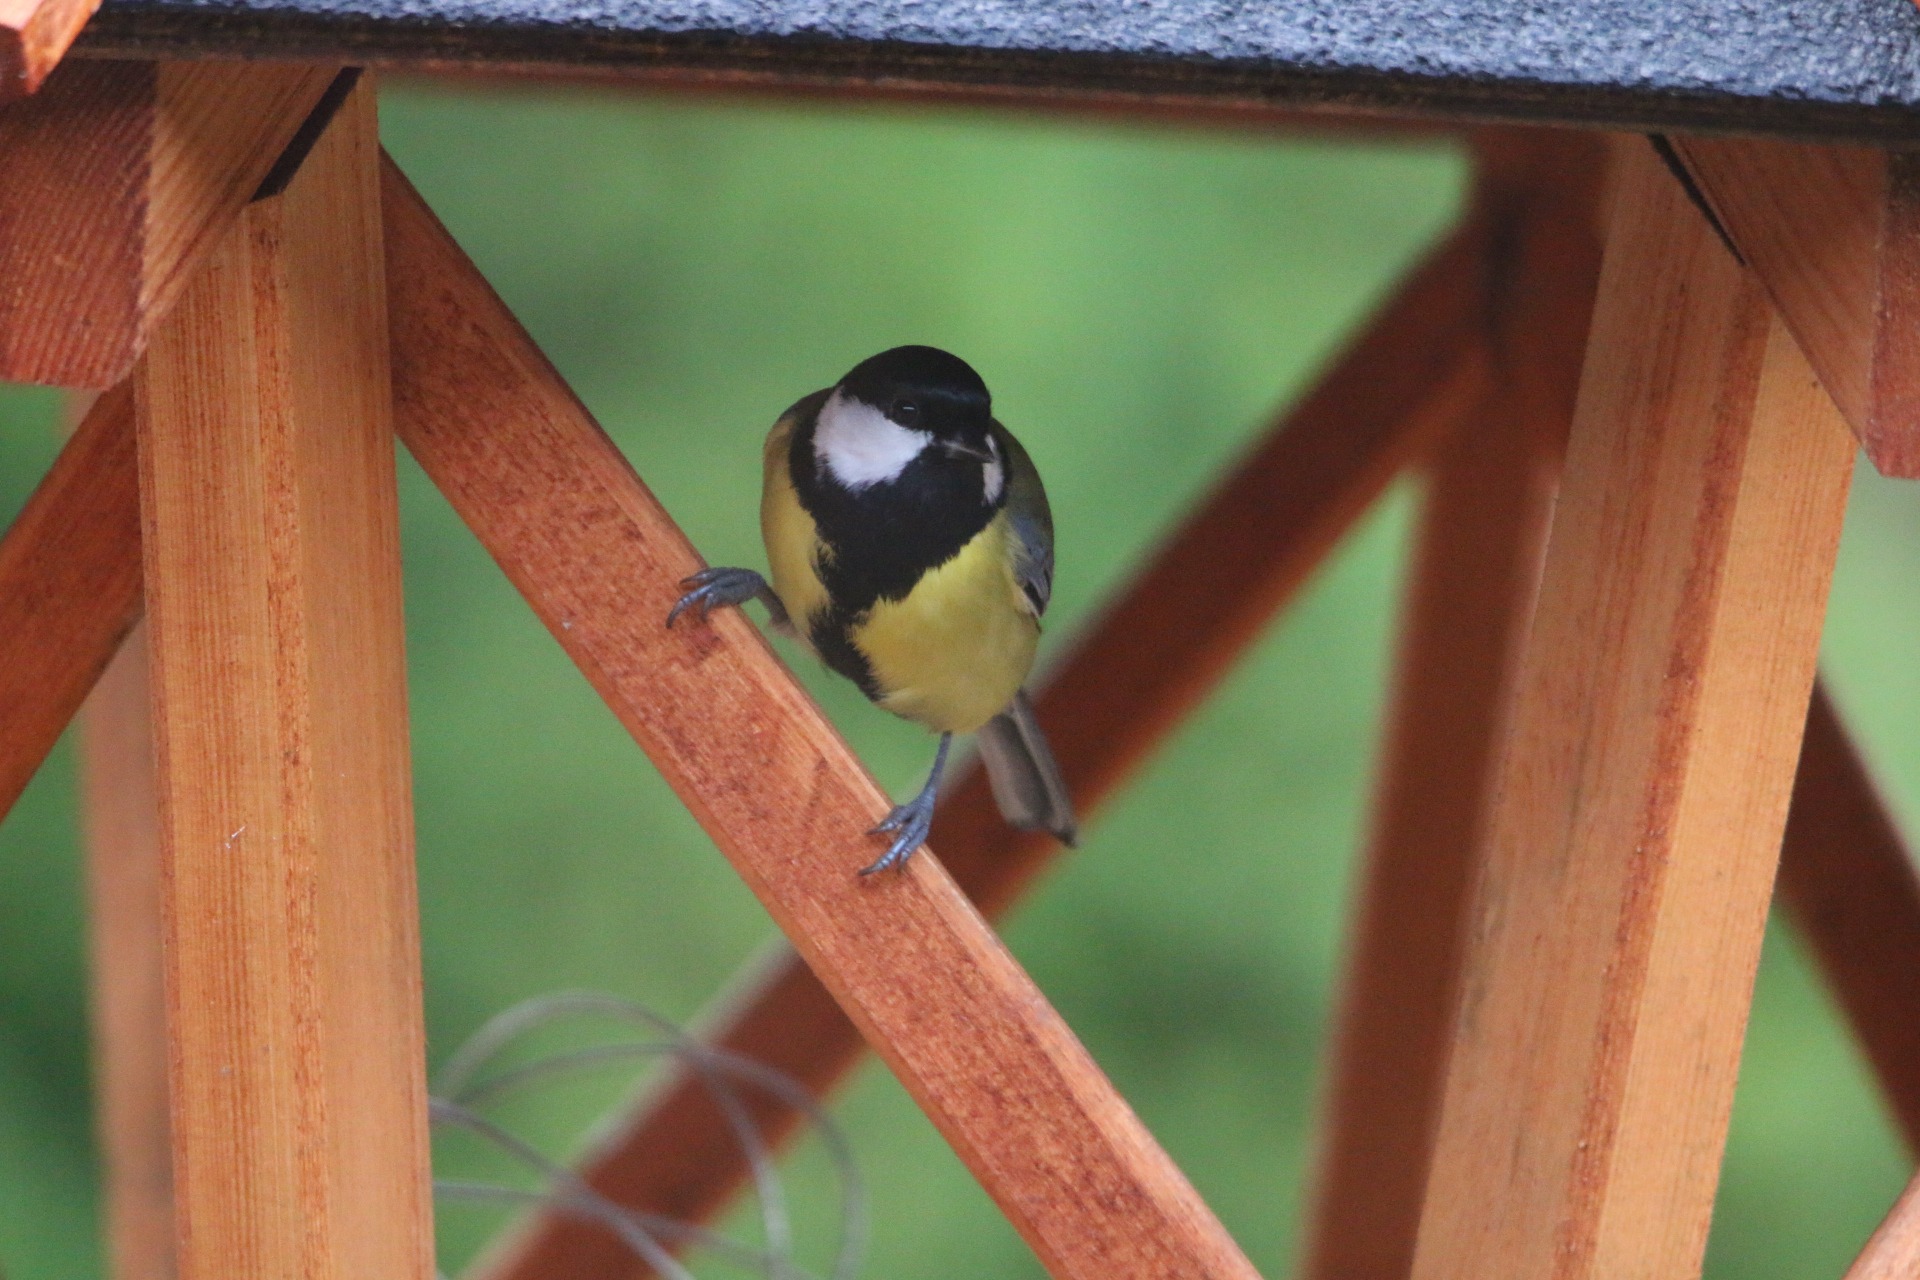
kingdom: Animalia
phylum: Chordata
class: Aves
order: Passeriformes
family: Paridae
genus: Parus
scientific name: Parus major
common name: Musvit
